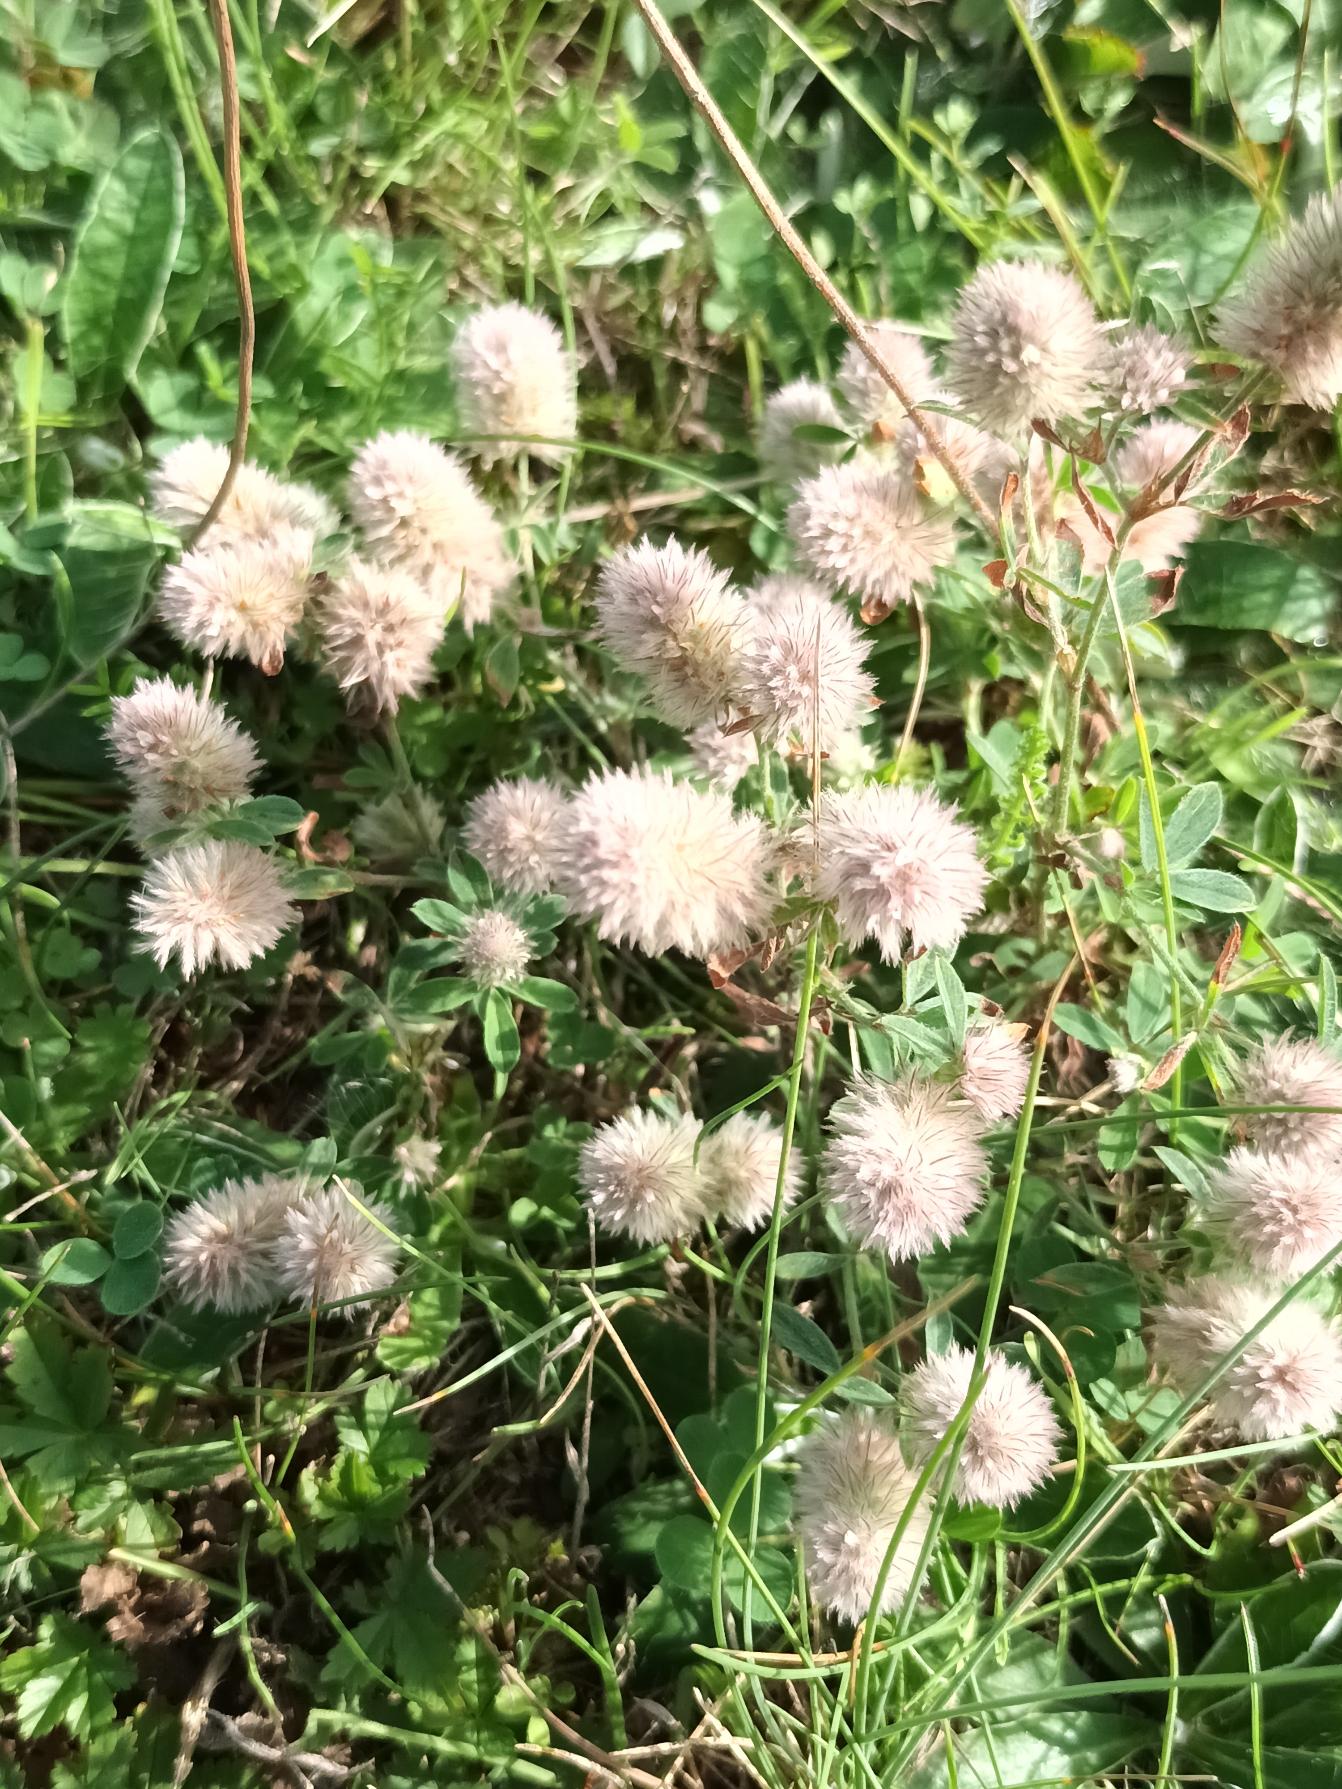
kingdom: Plantae
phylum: Tracheophyta
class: Magnoliopsida
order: Fabales
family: Fabaceae
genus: Trifolium
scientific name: Trifolium arvense
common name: Hare-kløver
